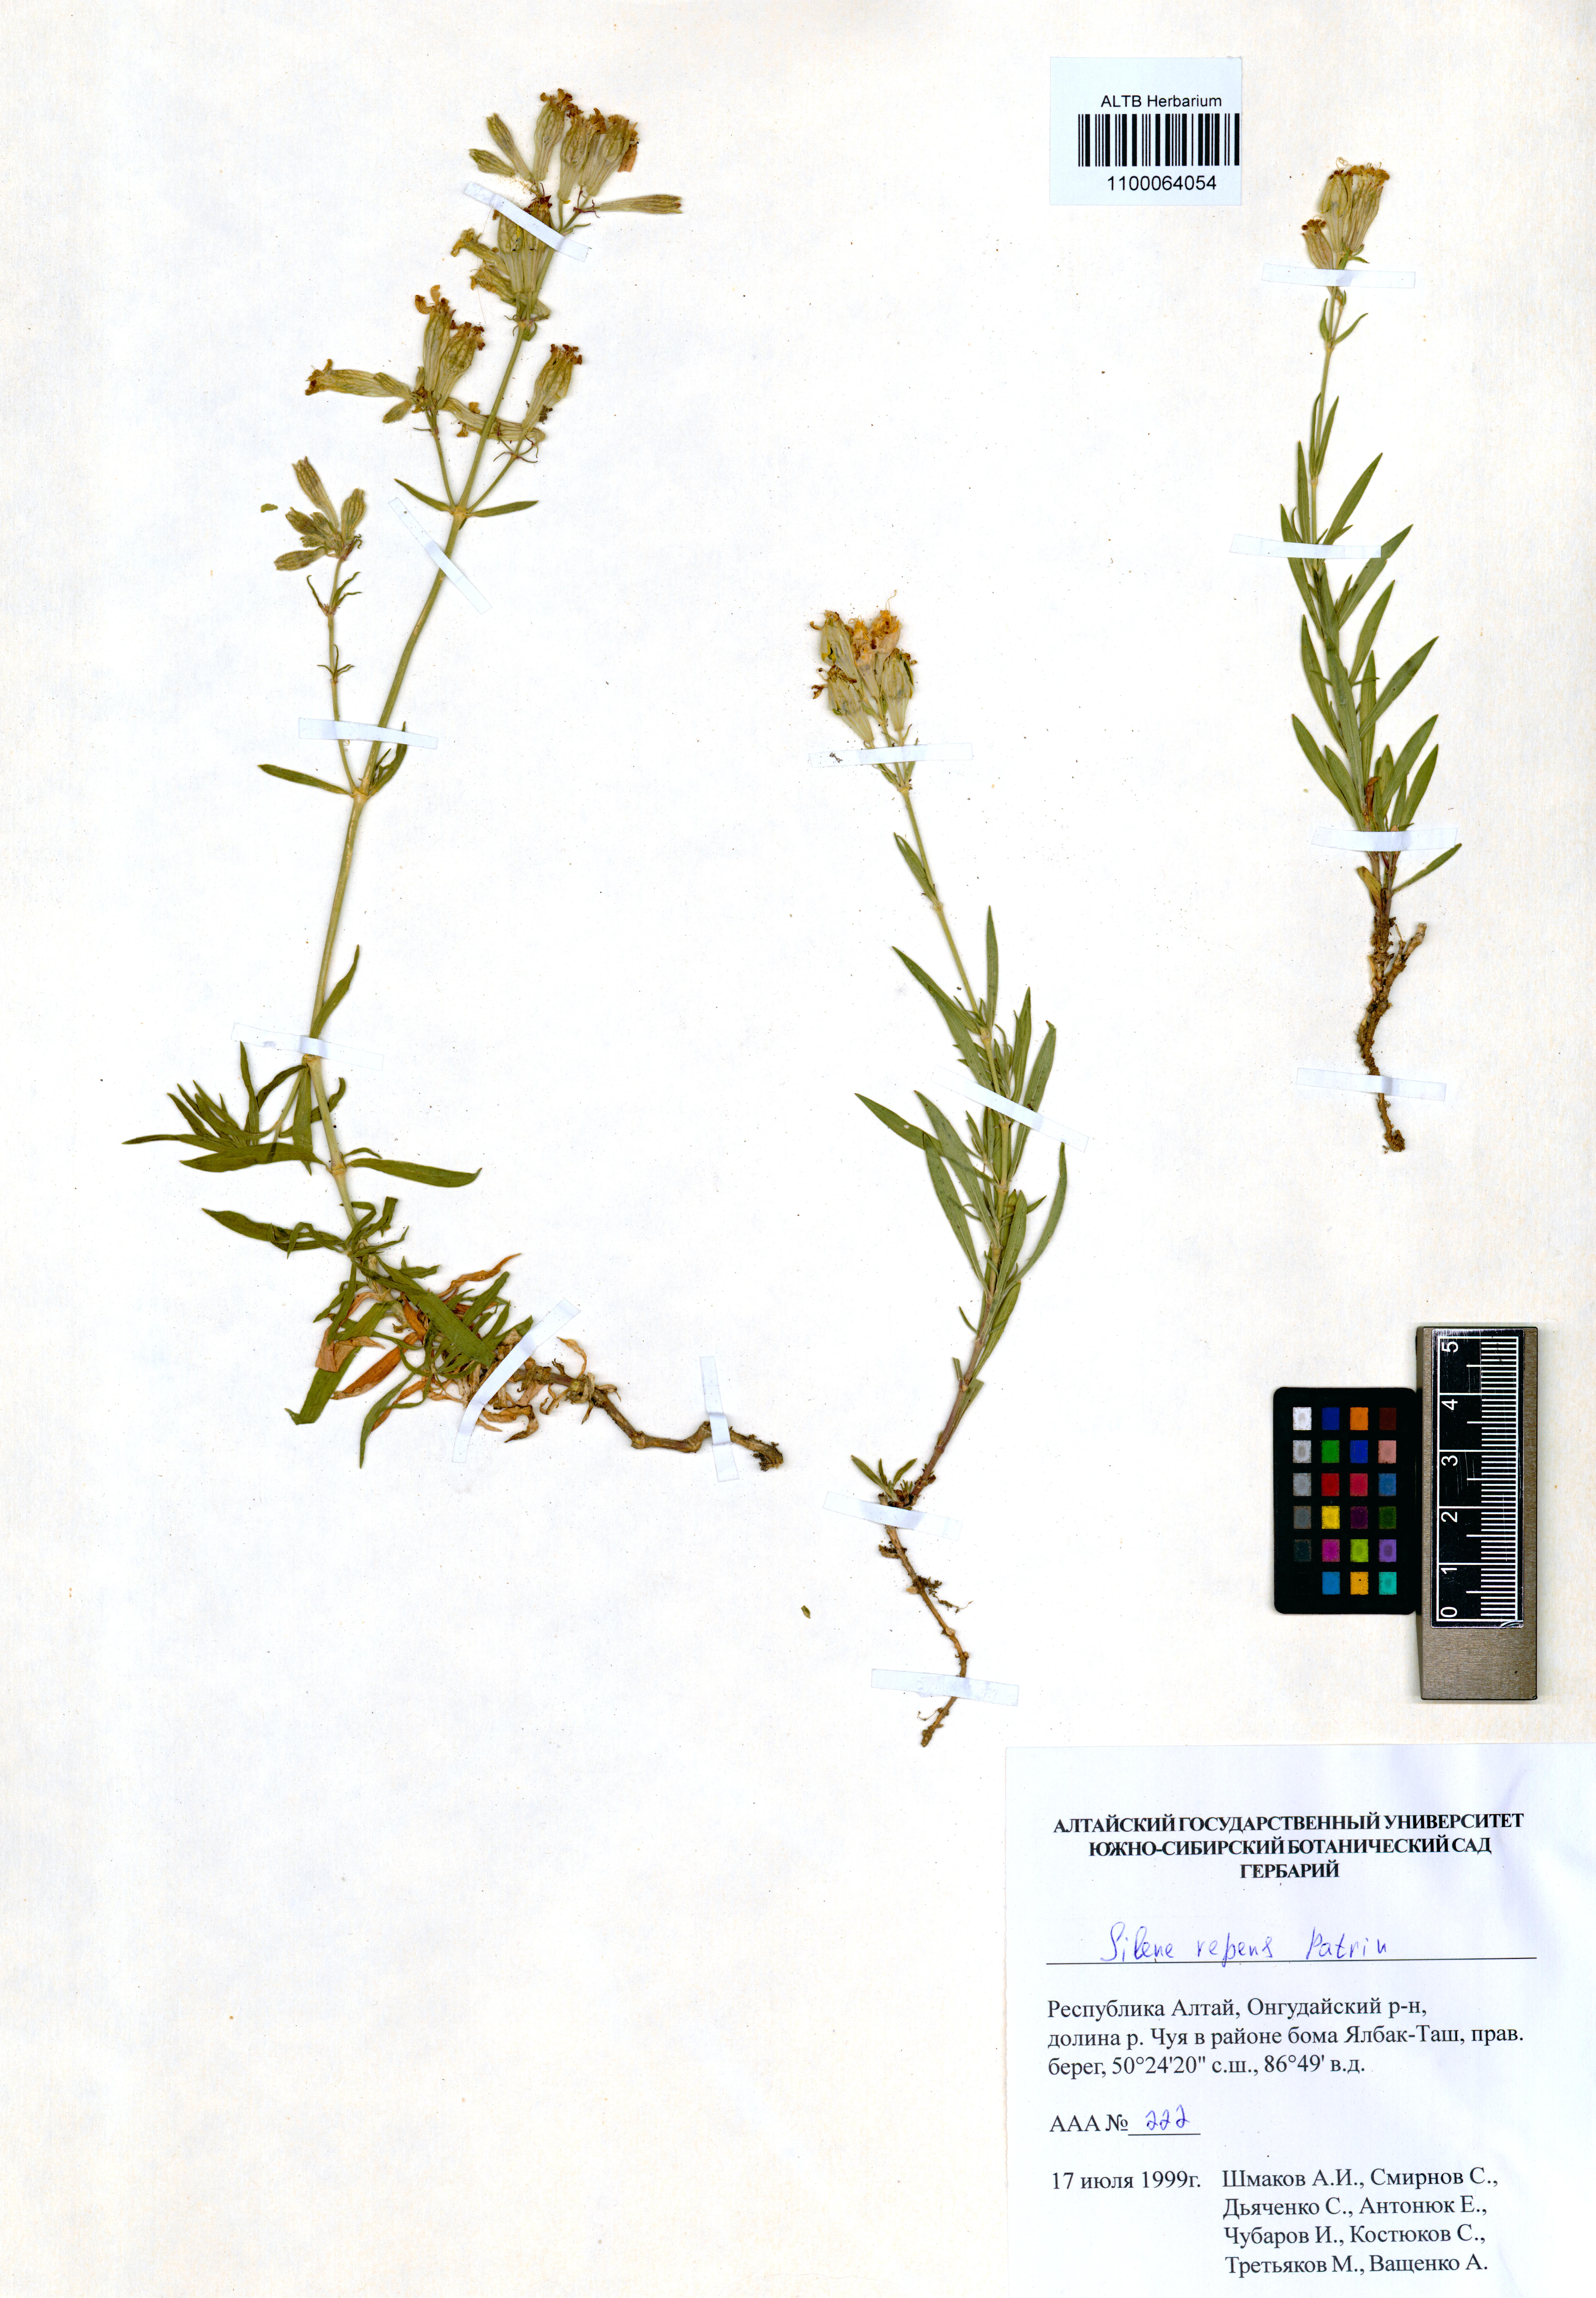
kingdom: Plantae
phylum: Tracheophyta
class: Magnoliopsida
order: Caryophyllales
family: Caryophyllaceae
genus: Silene
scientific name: Silene repens
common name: Pink campion
